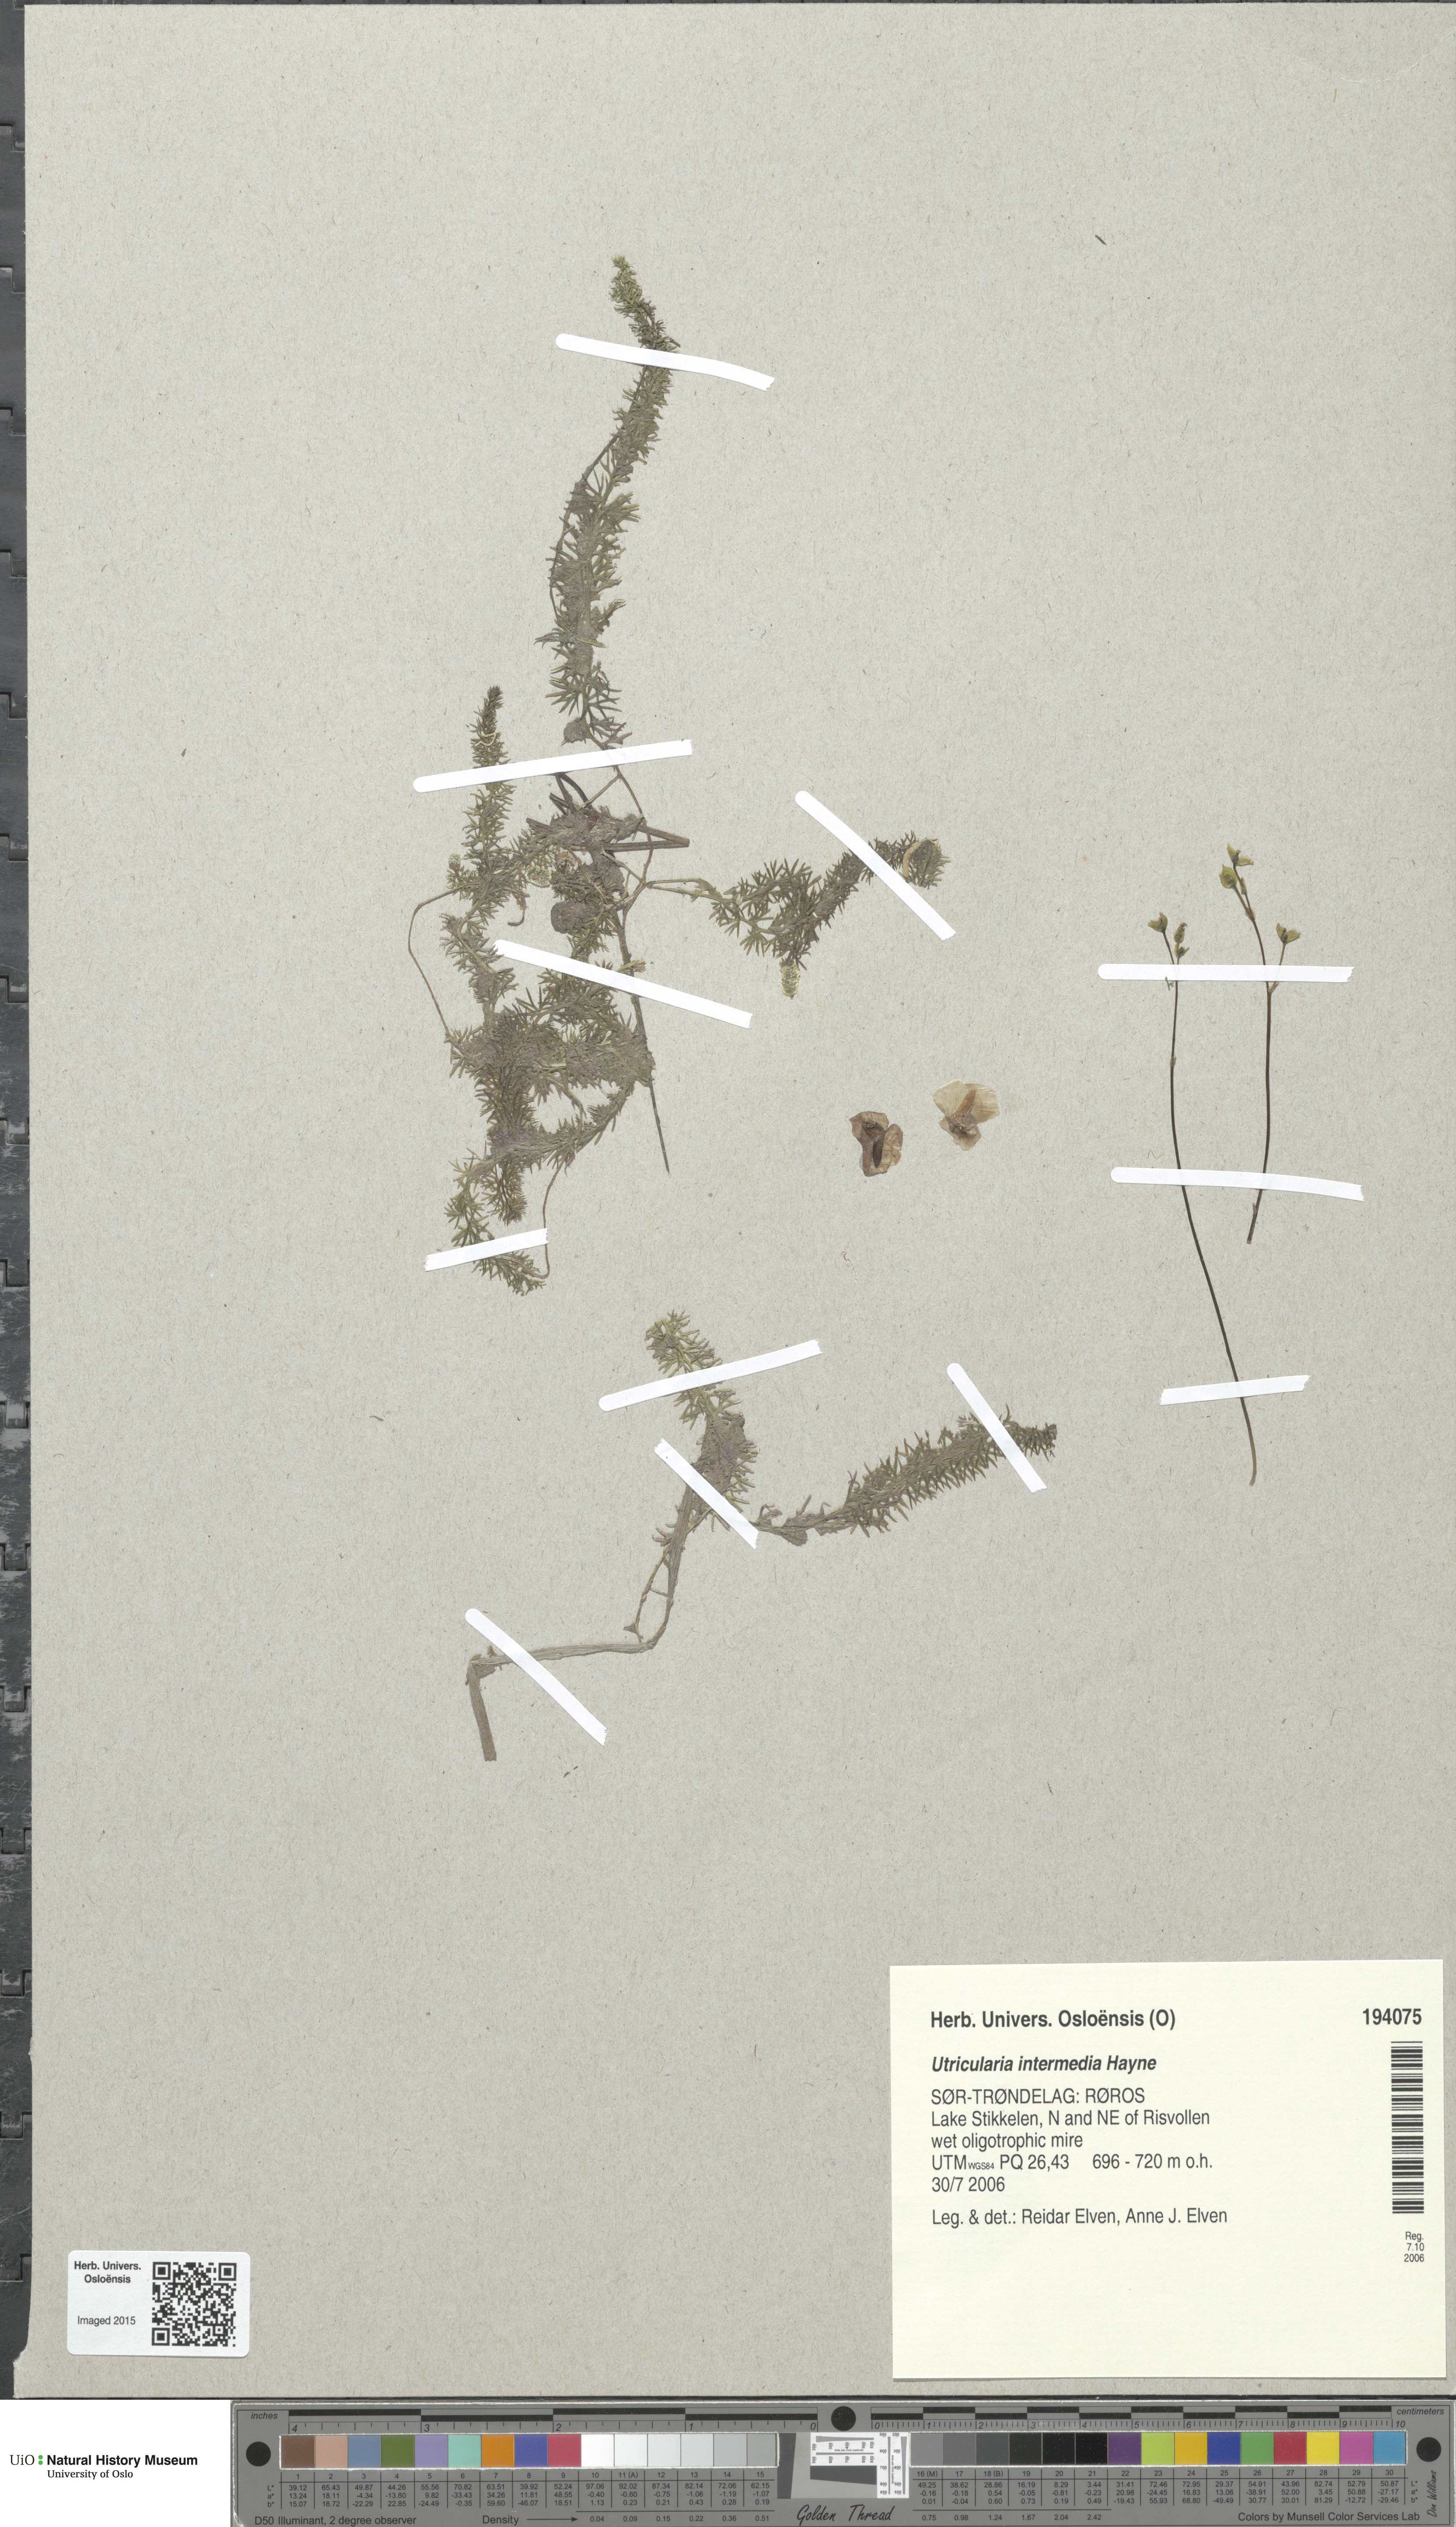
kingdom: Plantae
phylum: Tracheophyta
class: Magnoliopsida
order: Lamiales
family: Lentibulariaceae
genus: Utricularia
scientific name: Utricularia intermedia
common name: Intermediate bladderwort
